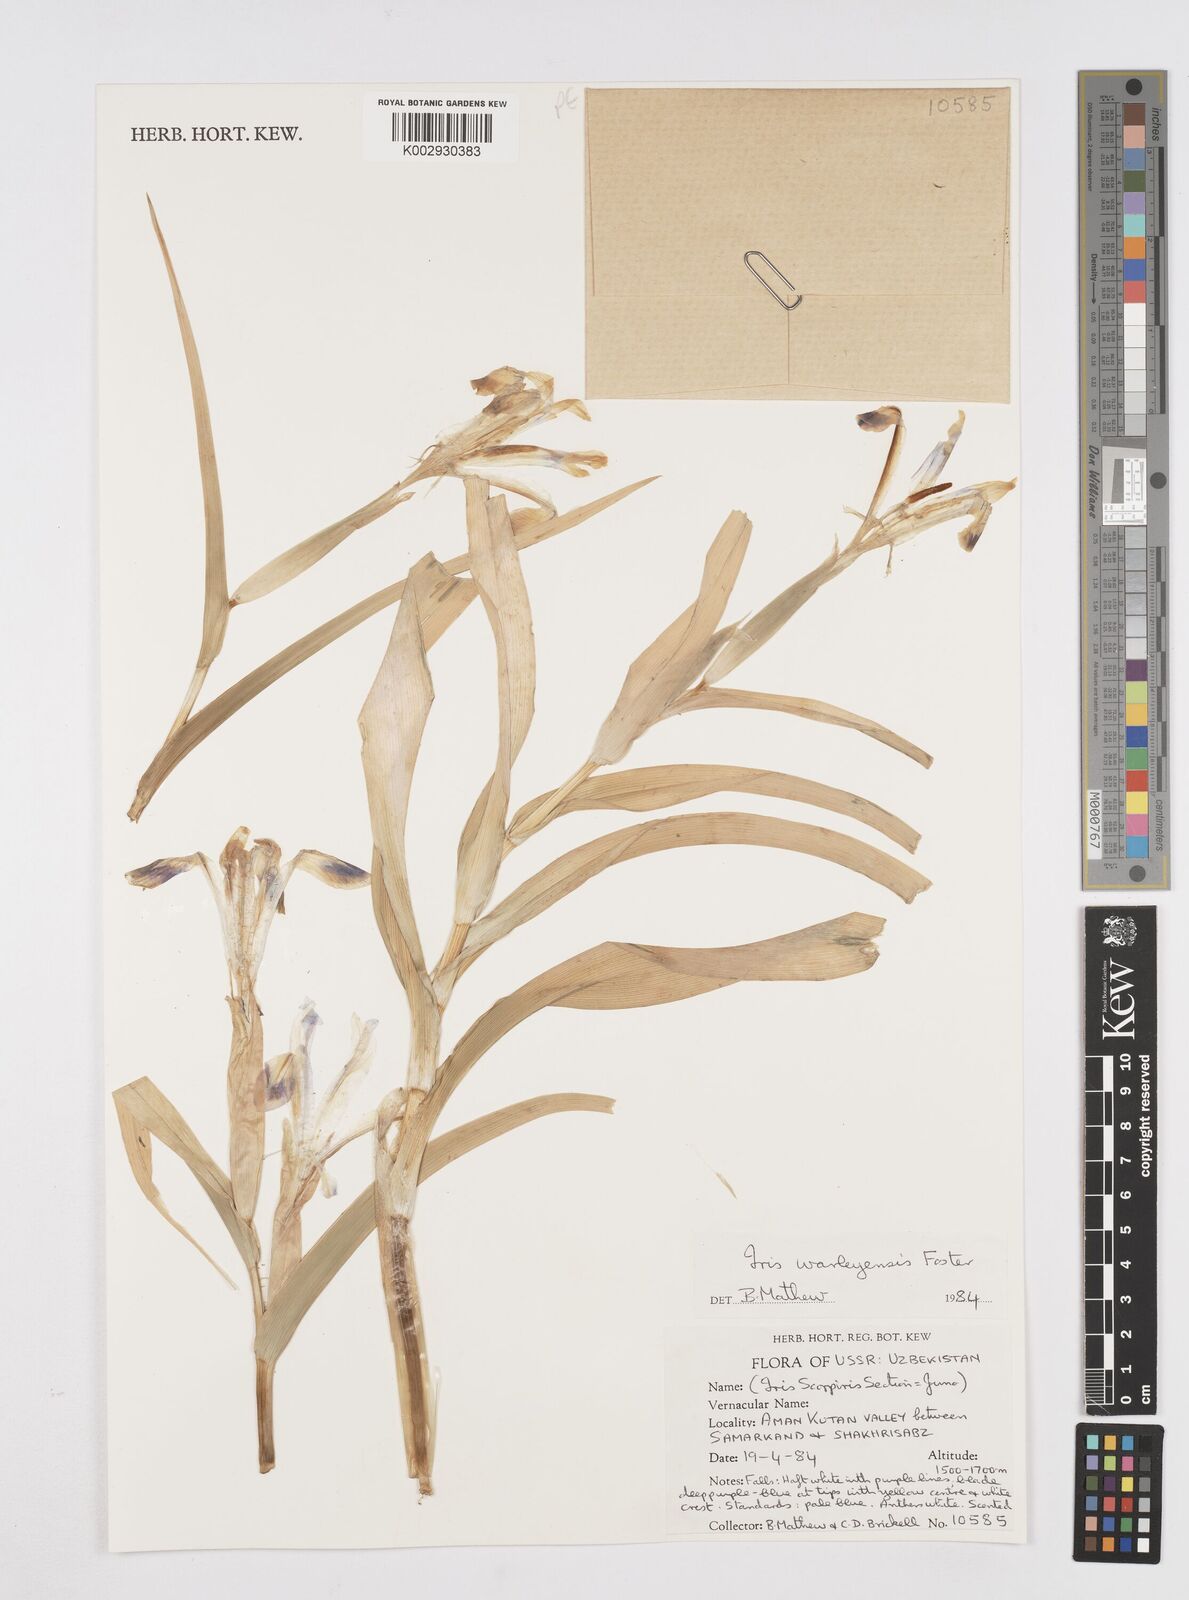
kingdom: Plantae
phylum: Tracheophyta
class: Liliopsida
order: Asparagales
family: Iridaceae
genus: Iris
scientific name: Iris warleyensis
